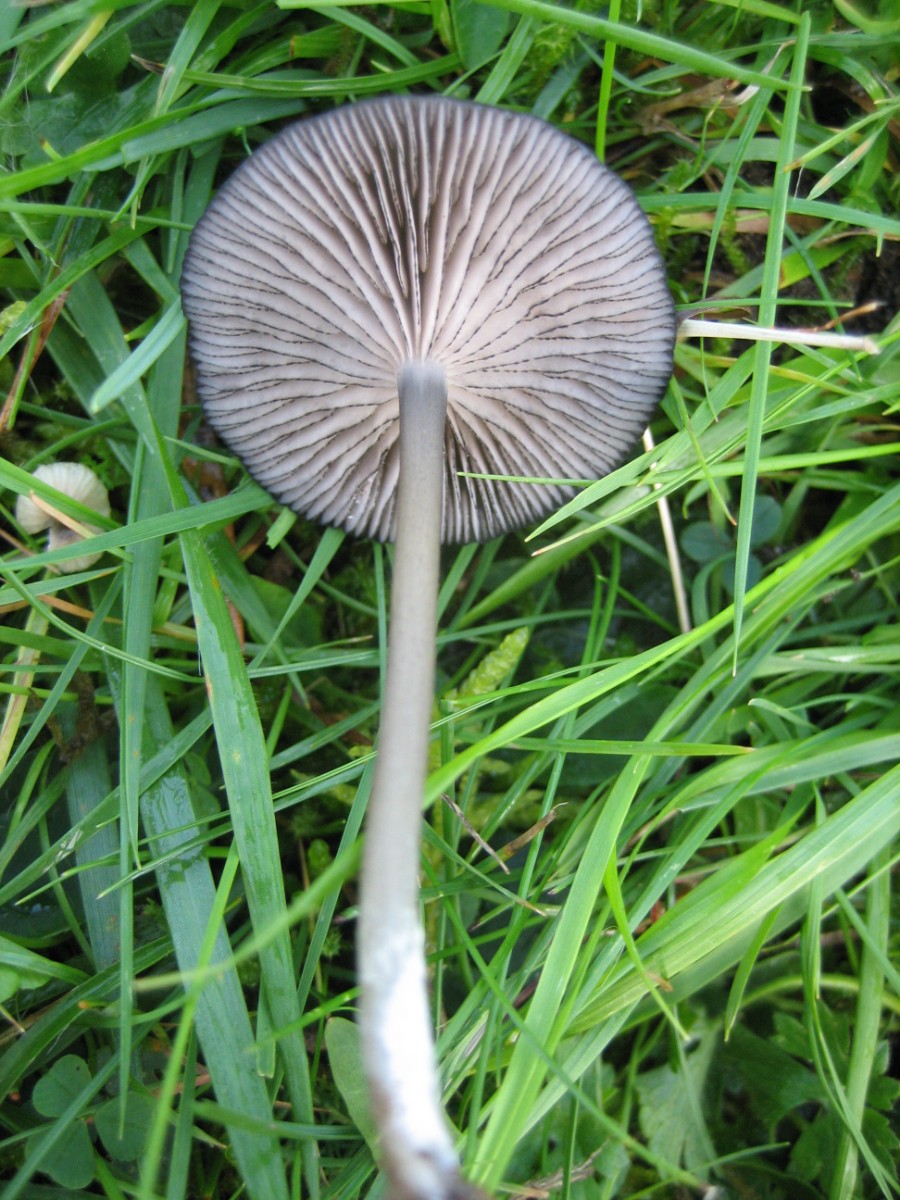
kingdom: Fungi
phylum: Basidiomycota
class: Agaricomycetes
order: Agaricales
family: Entolomataceae
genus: Entoloma
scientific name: Entoloma serrulatum
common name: savbladet rødblad
